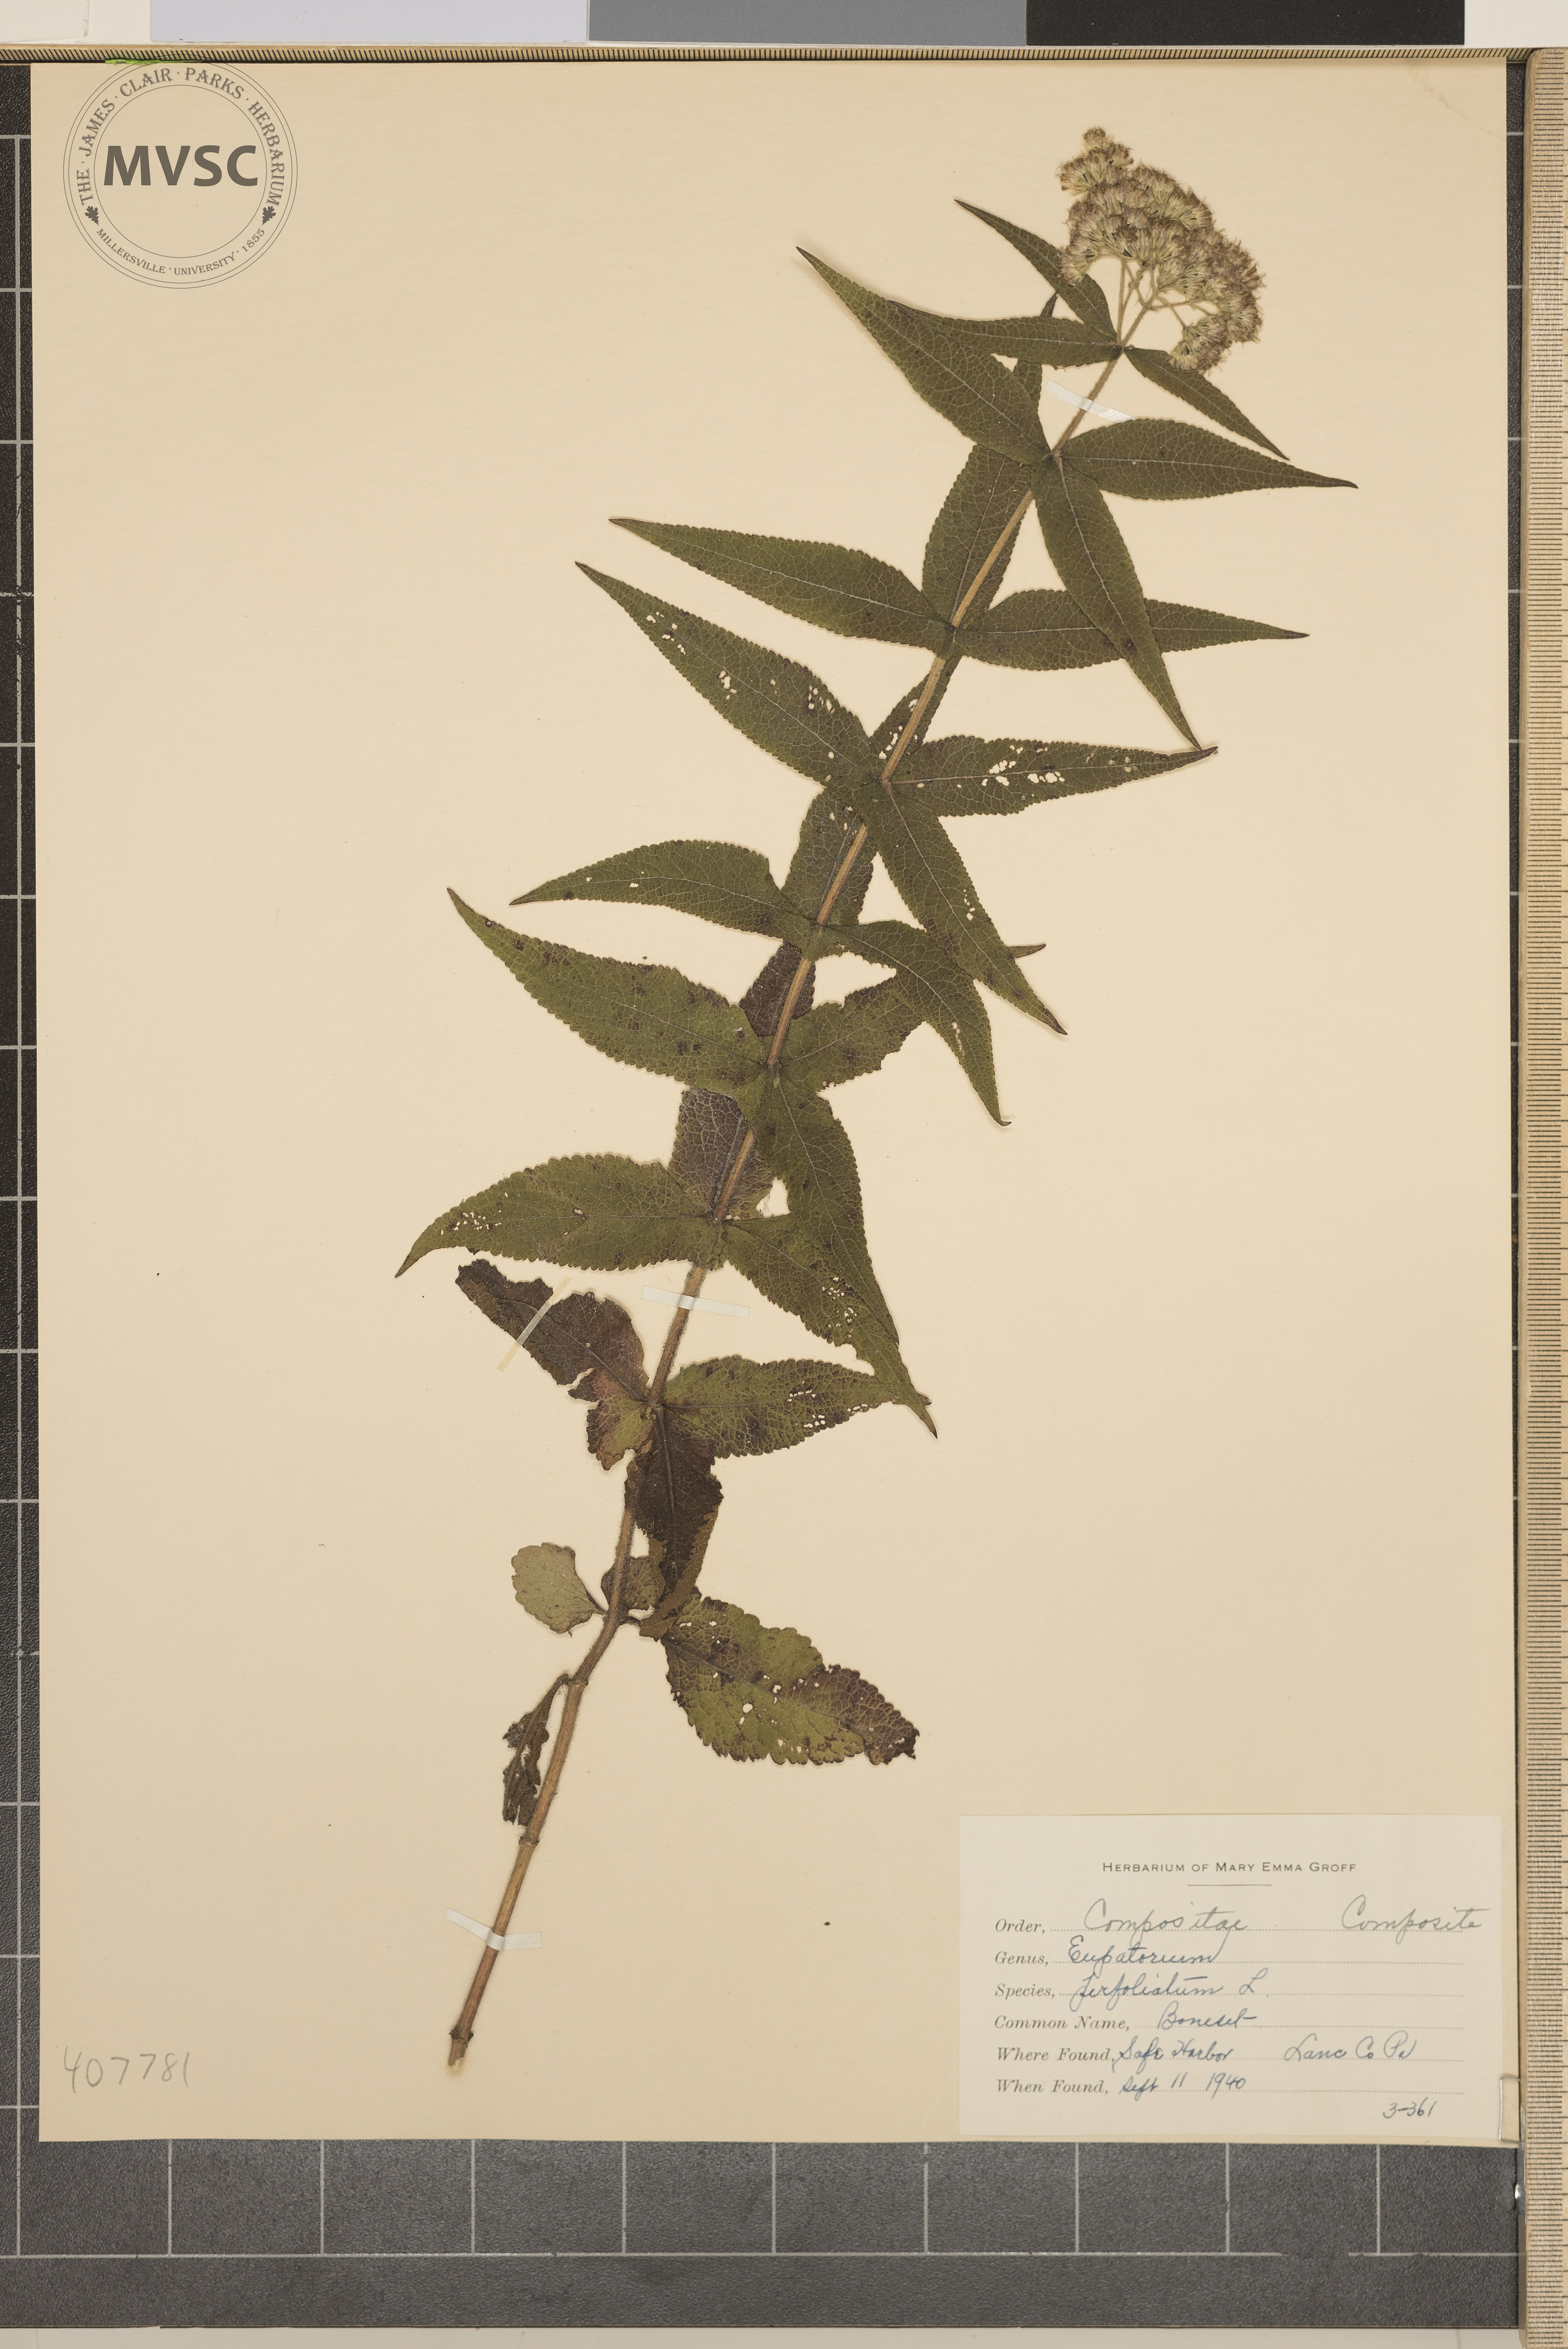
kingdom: Plantae
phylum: Tracheophyta
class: Magnoliopsida
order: Asterales
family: Asteraceae
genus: Eupatorium
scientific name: Eupatorium perfoliatum
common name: Boneset
